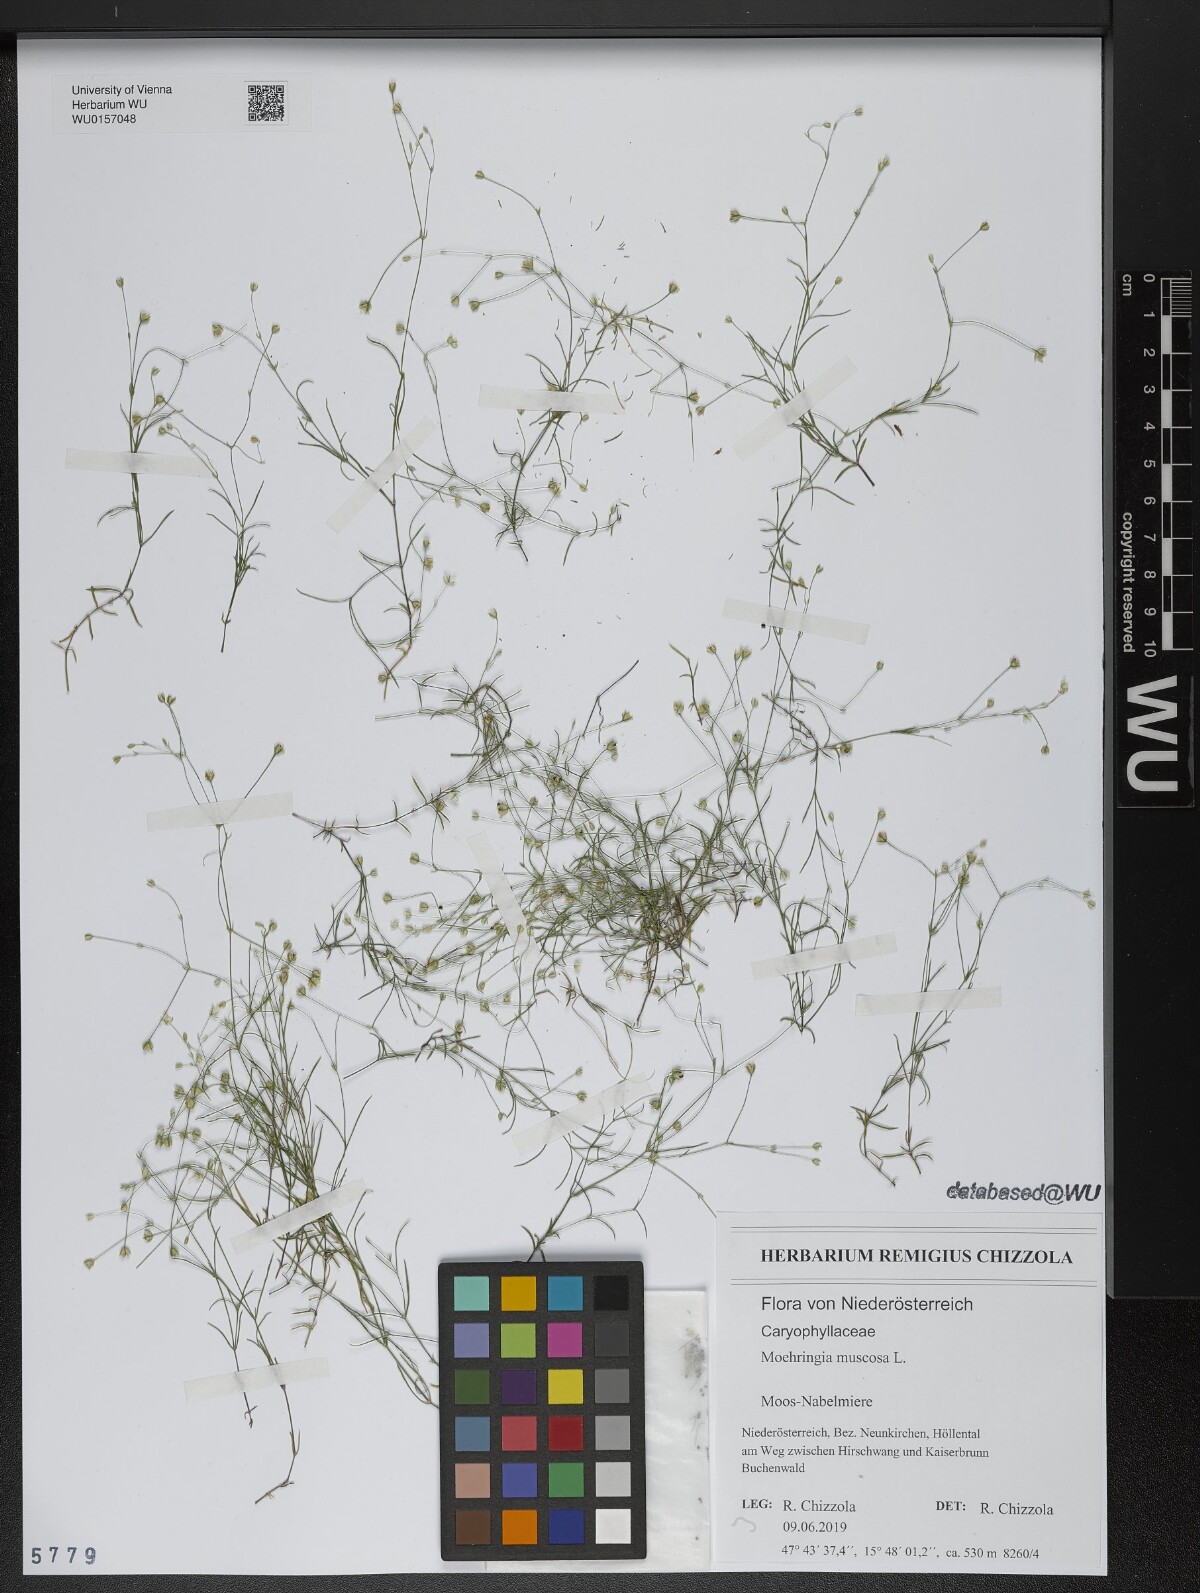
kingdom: Plantae
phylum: Tracheophyta
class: Magnoliopsida
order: Caryophyllales
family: Caryophyllaceae
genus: Moehringia
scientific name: Moehringia muscosa
